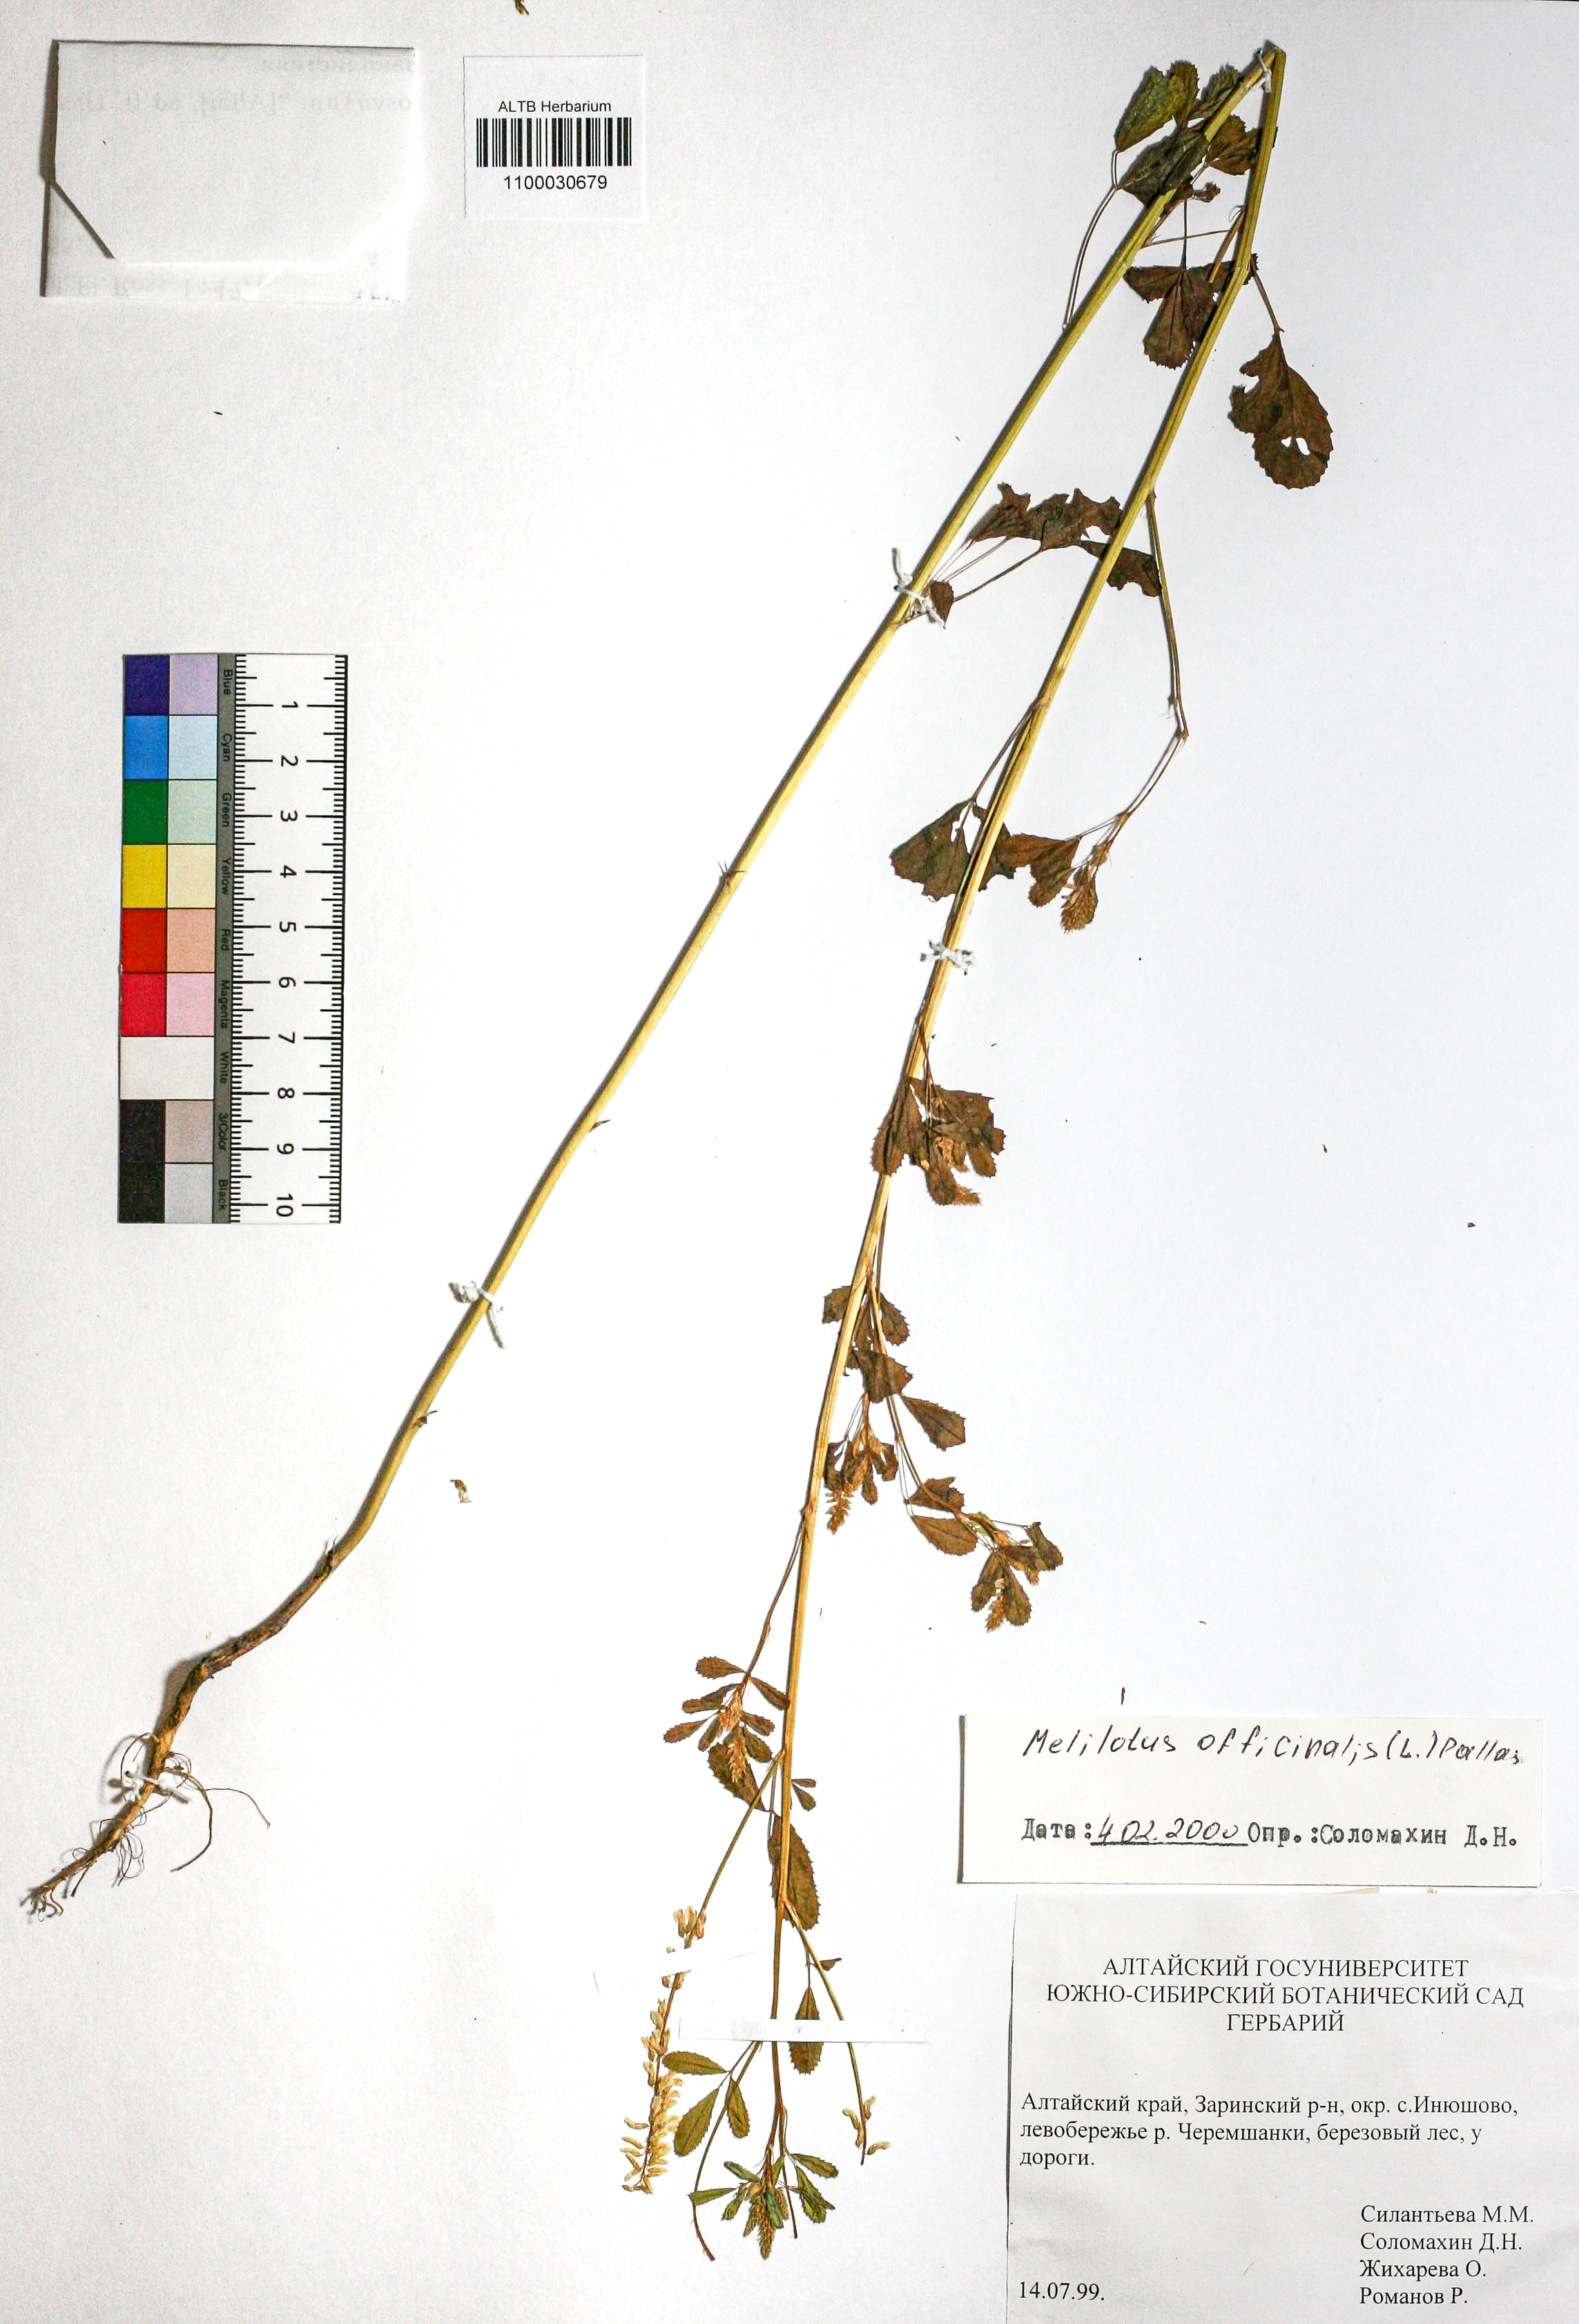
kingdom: Plantae
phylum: Tracheophyta
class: Magnoliopsida
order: Fabales
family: Fabaceae
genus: Melilotus
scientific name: Melilotus officinalis
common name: Sweetclover
